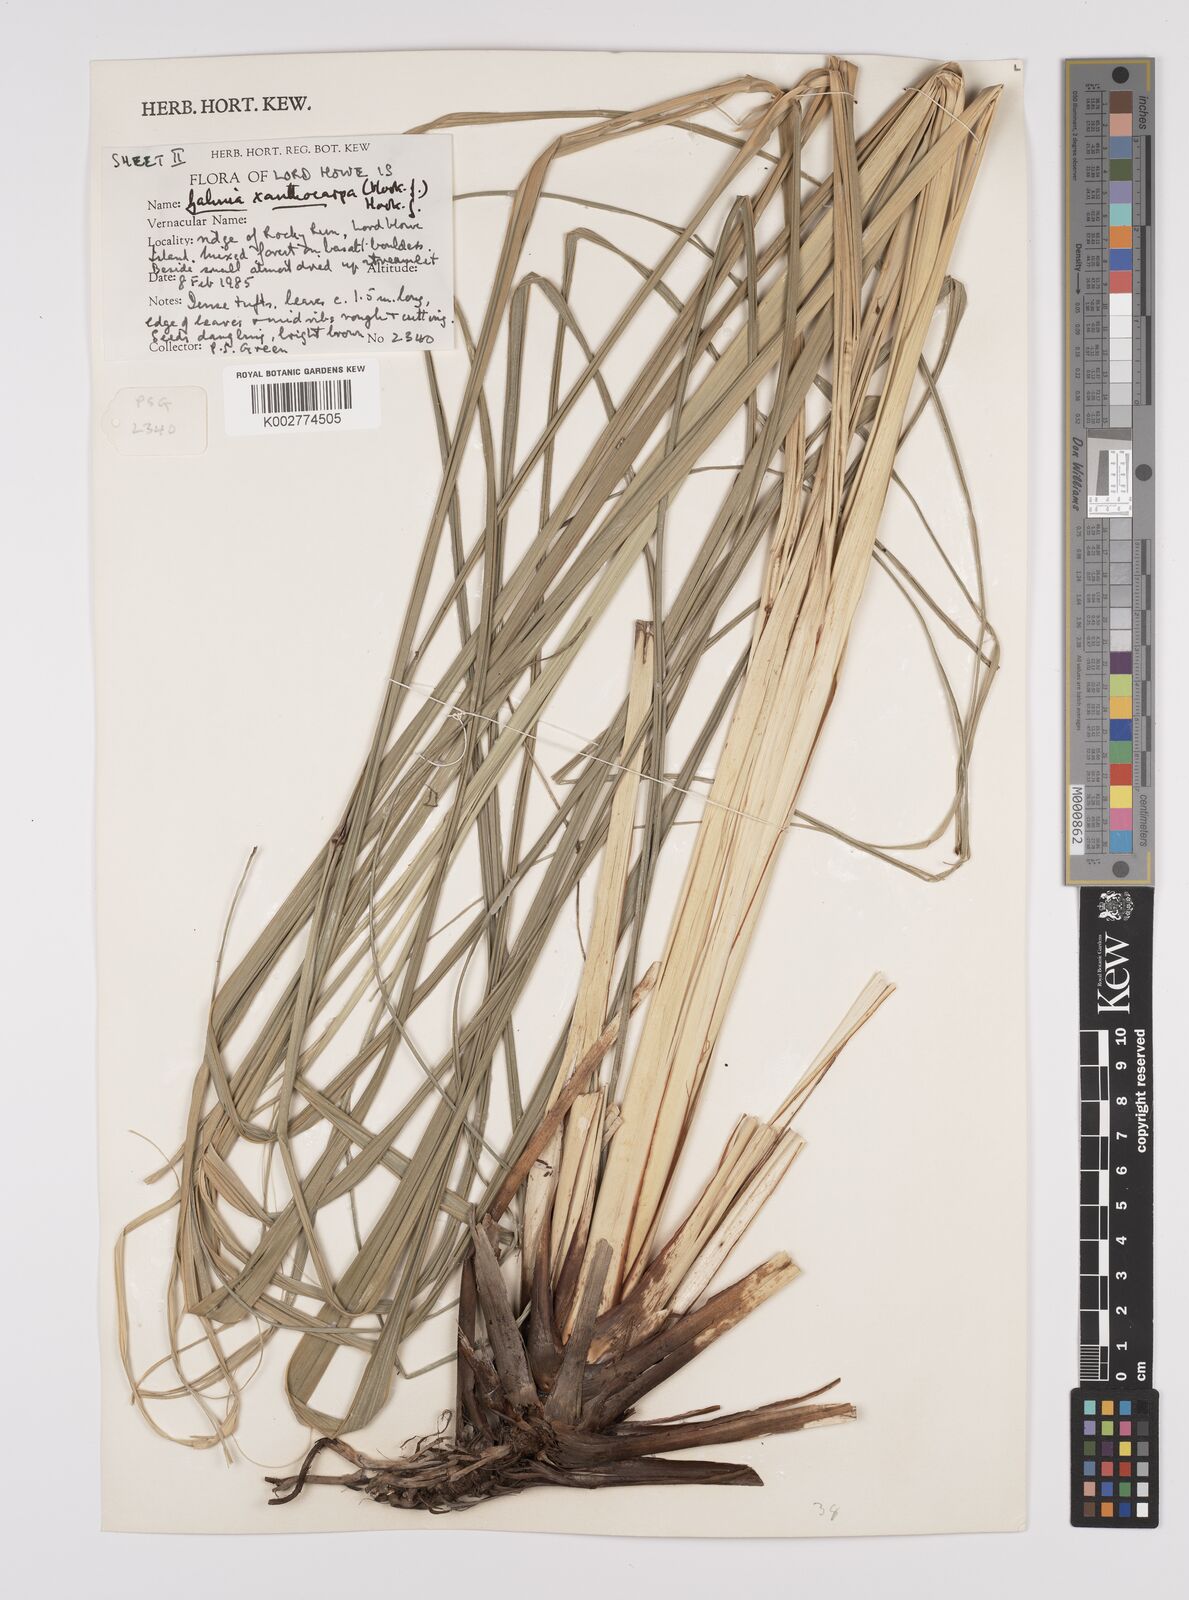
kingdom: Plantae
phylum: Tracheophyta
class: Liliopsida
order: Poales
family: Cyperaceae
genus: Gahnia
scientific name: Gahnia xanthocarpa
